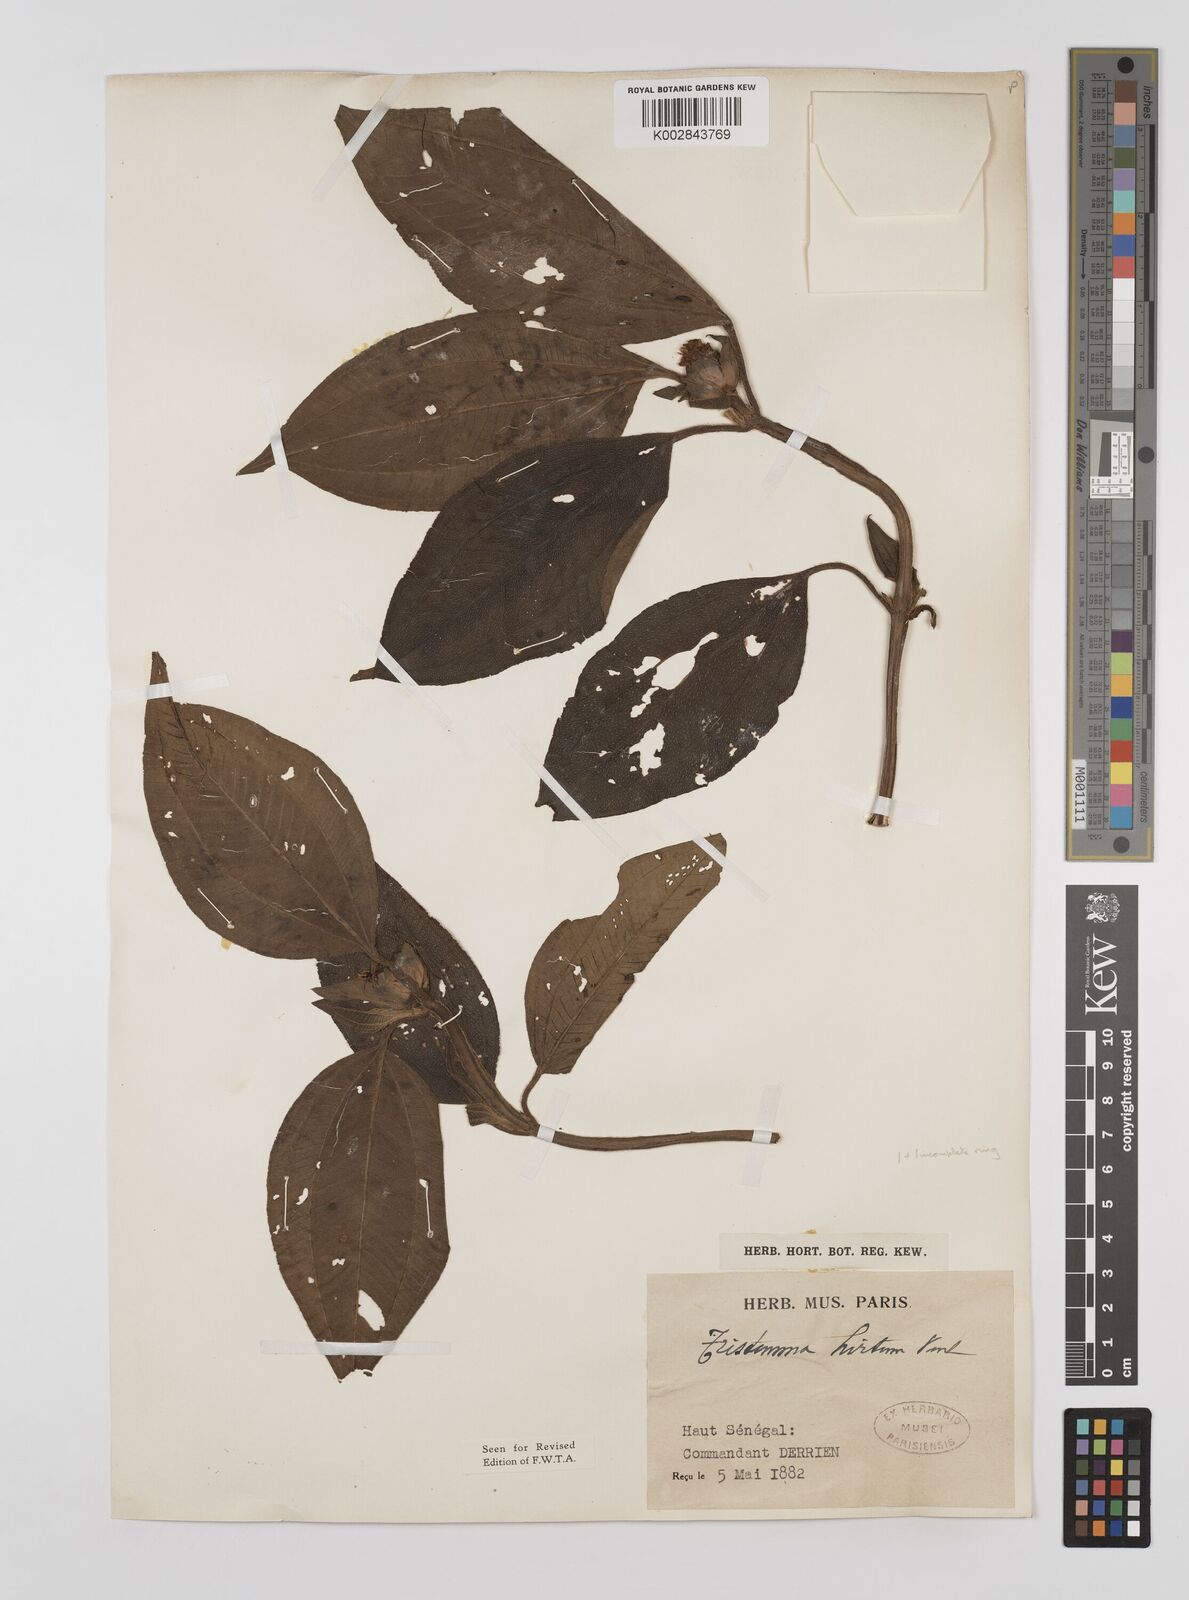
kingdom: Plantae
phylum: Tracheophyta
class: Magnoliopsida
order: Myrtales
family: Melastomataceae
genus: Tristemma
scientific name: Tristemma hirtum
